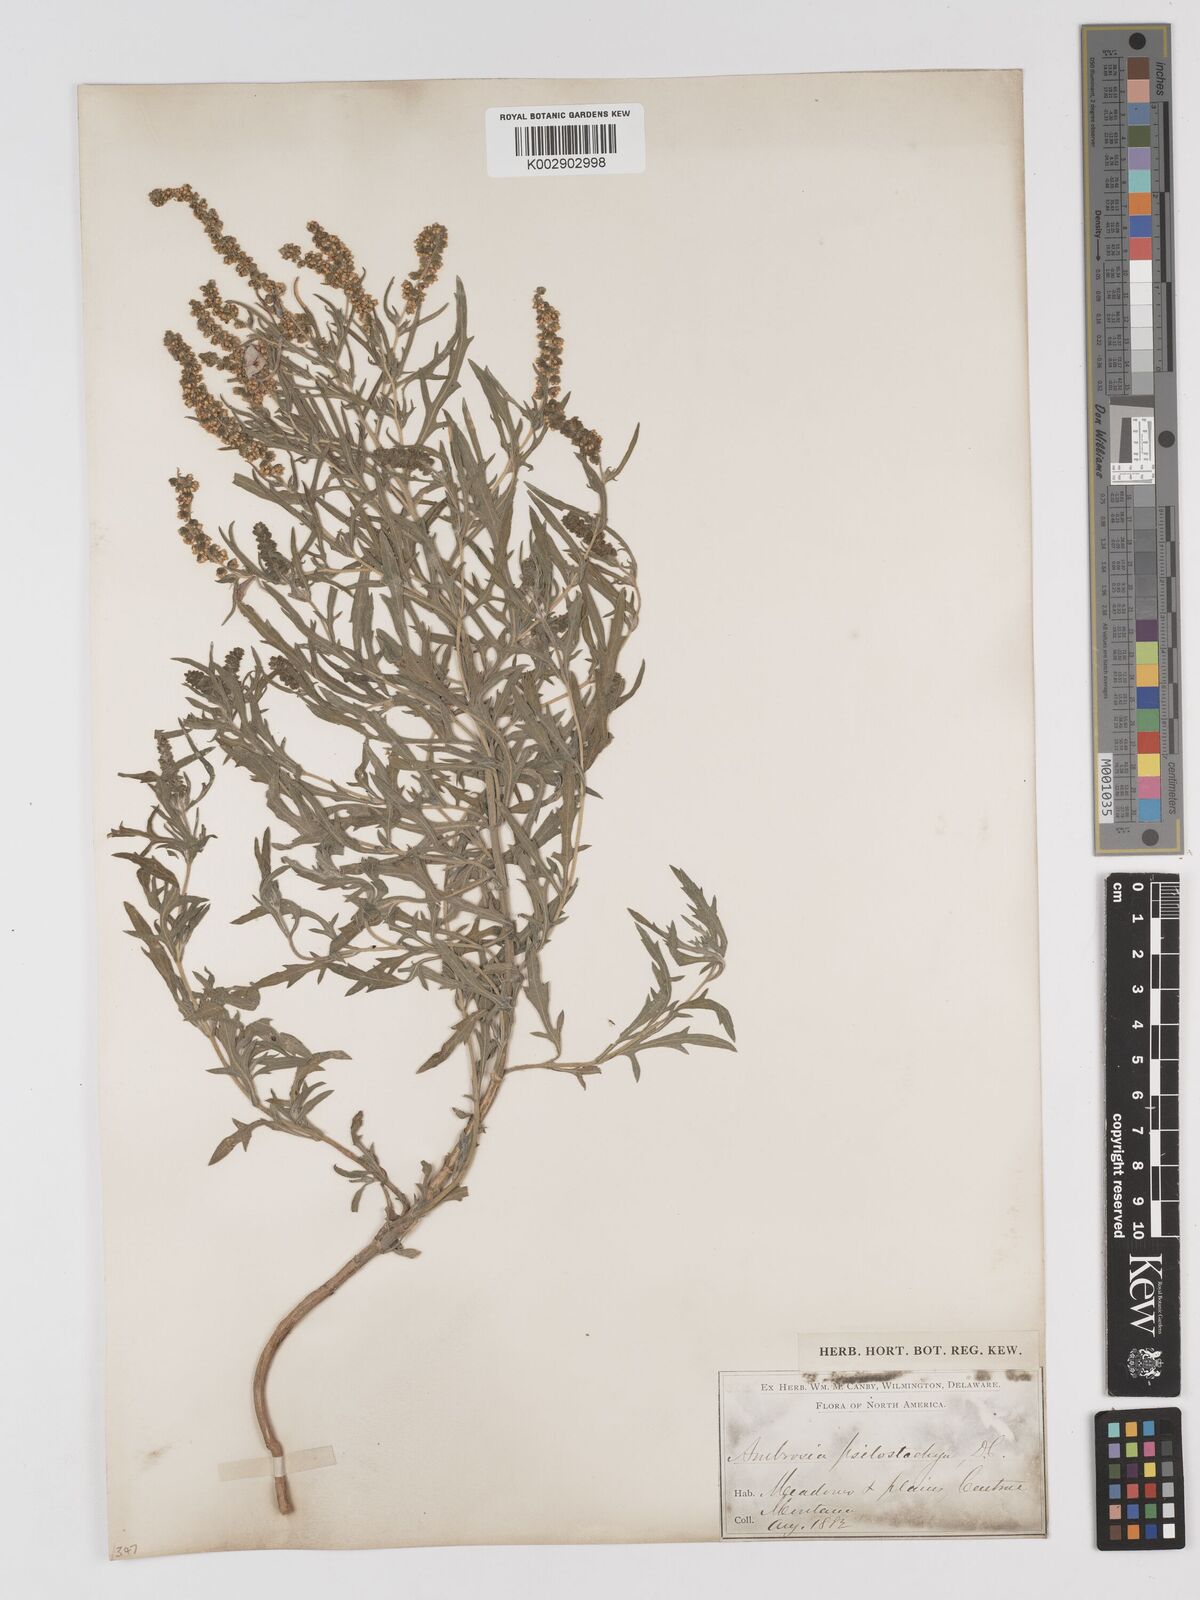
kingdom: Plantae
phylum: Tracheophyta
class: Magnoliopsida
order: Asterales
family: Asteraceae
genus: Ambrosia
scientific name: Ambrosia psilostachya
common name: Perennial ragweed
